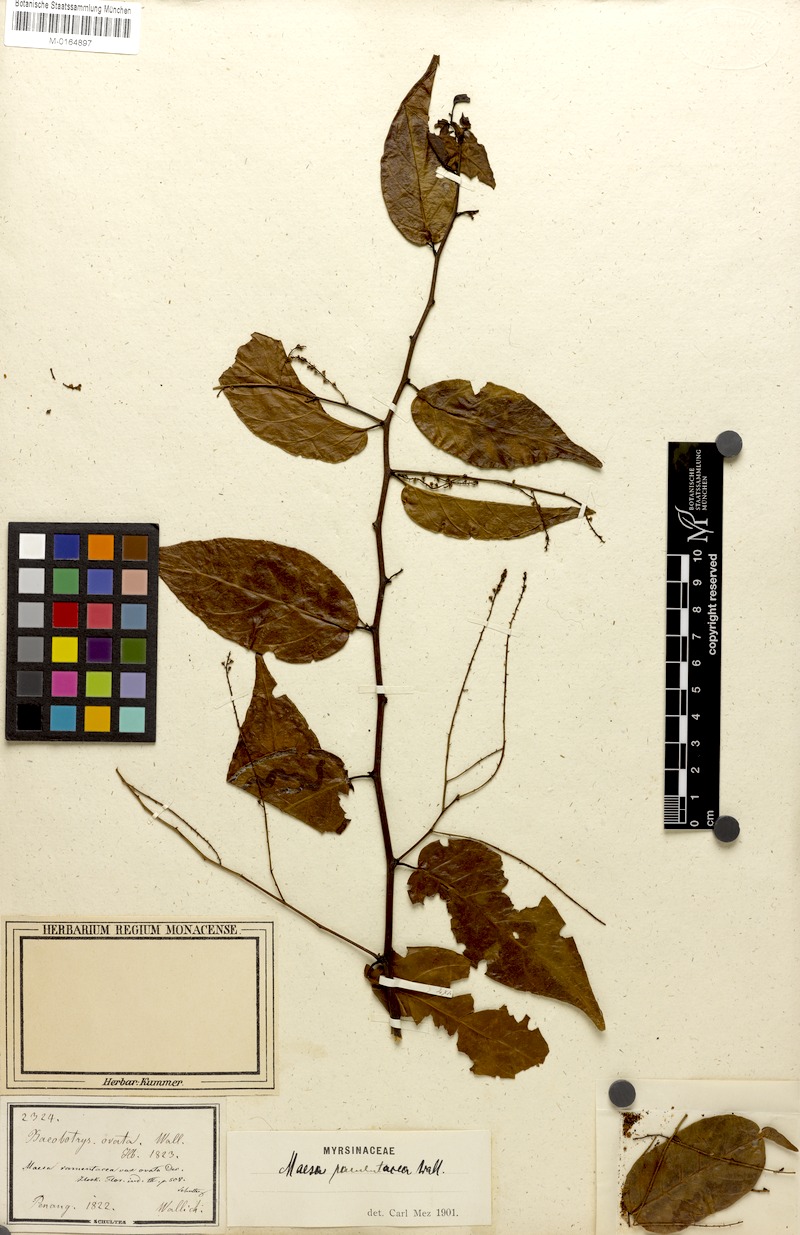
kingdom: Plantae
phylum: Tracheophyta
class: Magnoliopsida
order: Ericales
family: Primulaceae
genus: Maesa
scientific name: Maesa ramentacea
